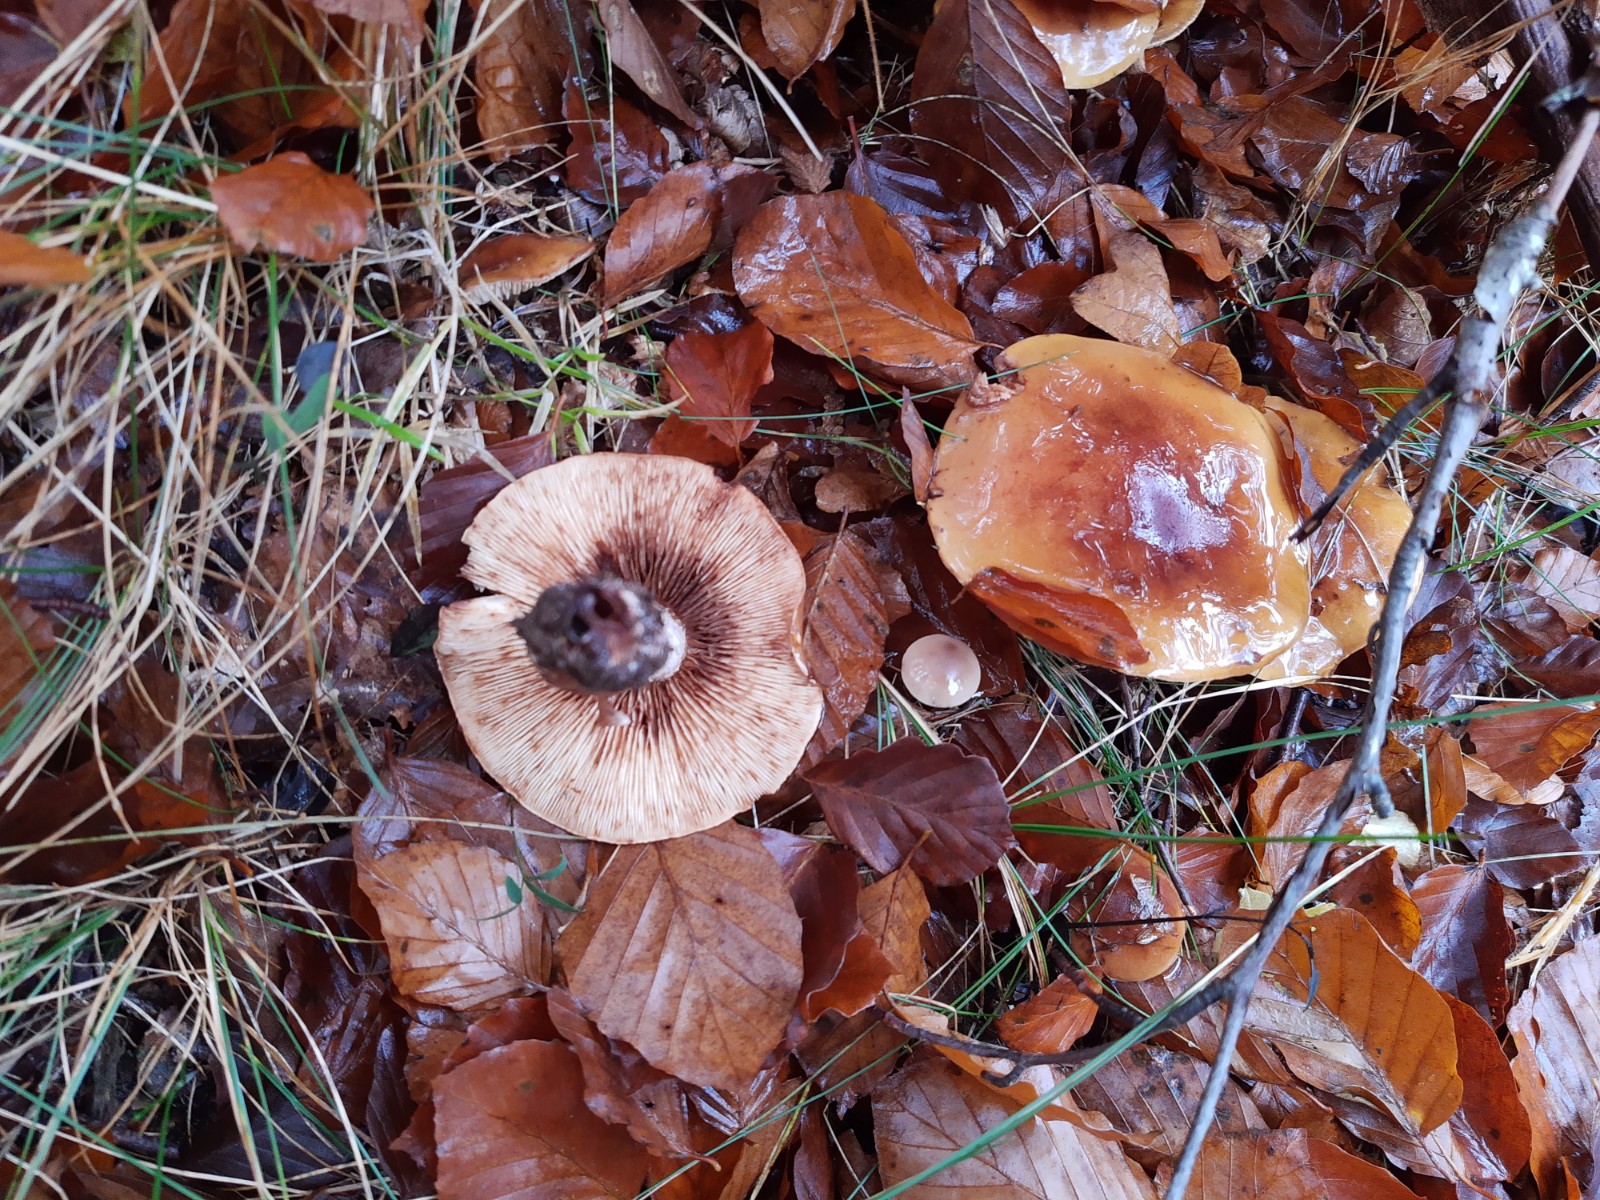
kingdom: Fungi
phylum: Basidiomycota
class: Agaricomycetes
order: Agaricales
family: Tricholomataceae
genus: Tricholoma
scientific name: Tricholoma ustale
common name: sveden ridderhat
